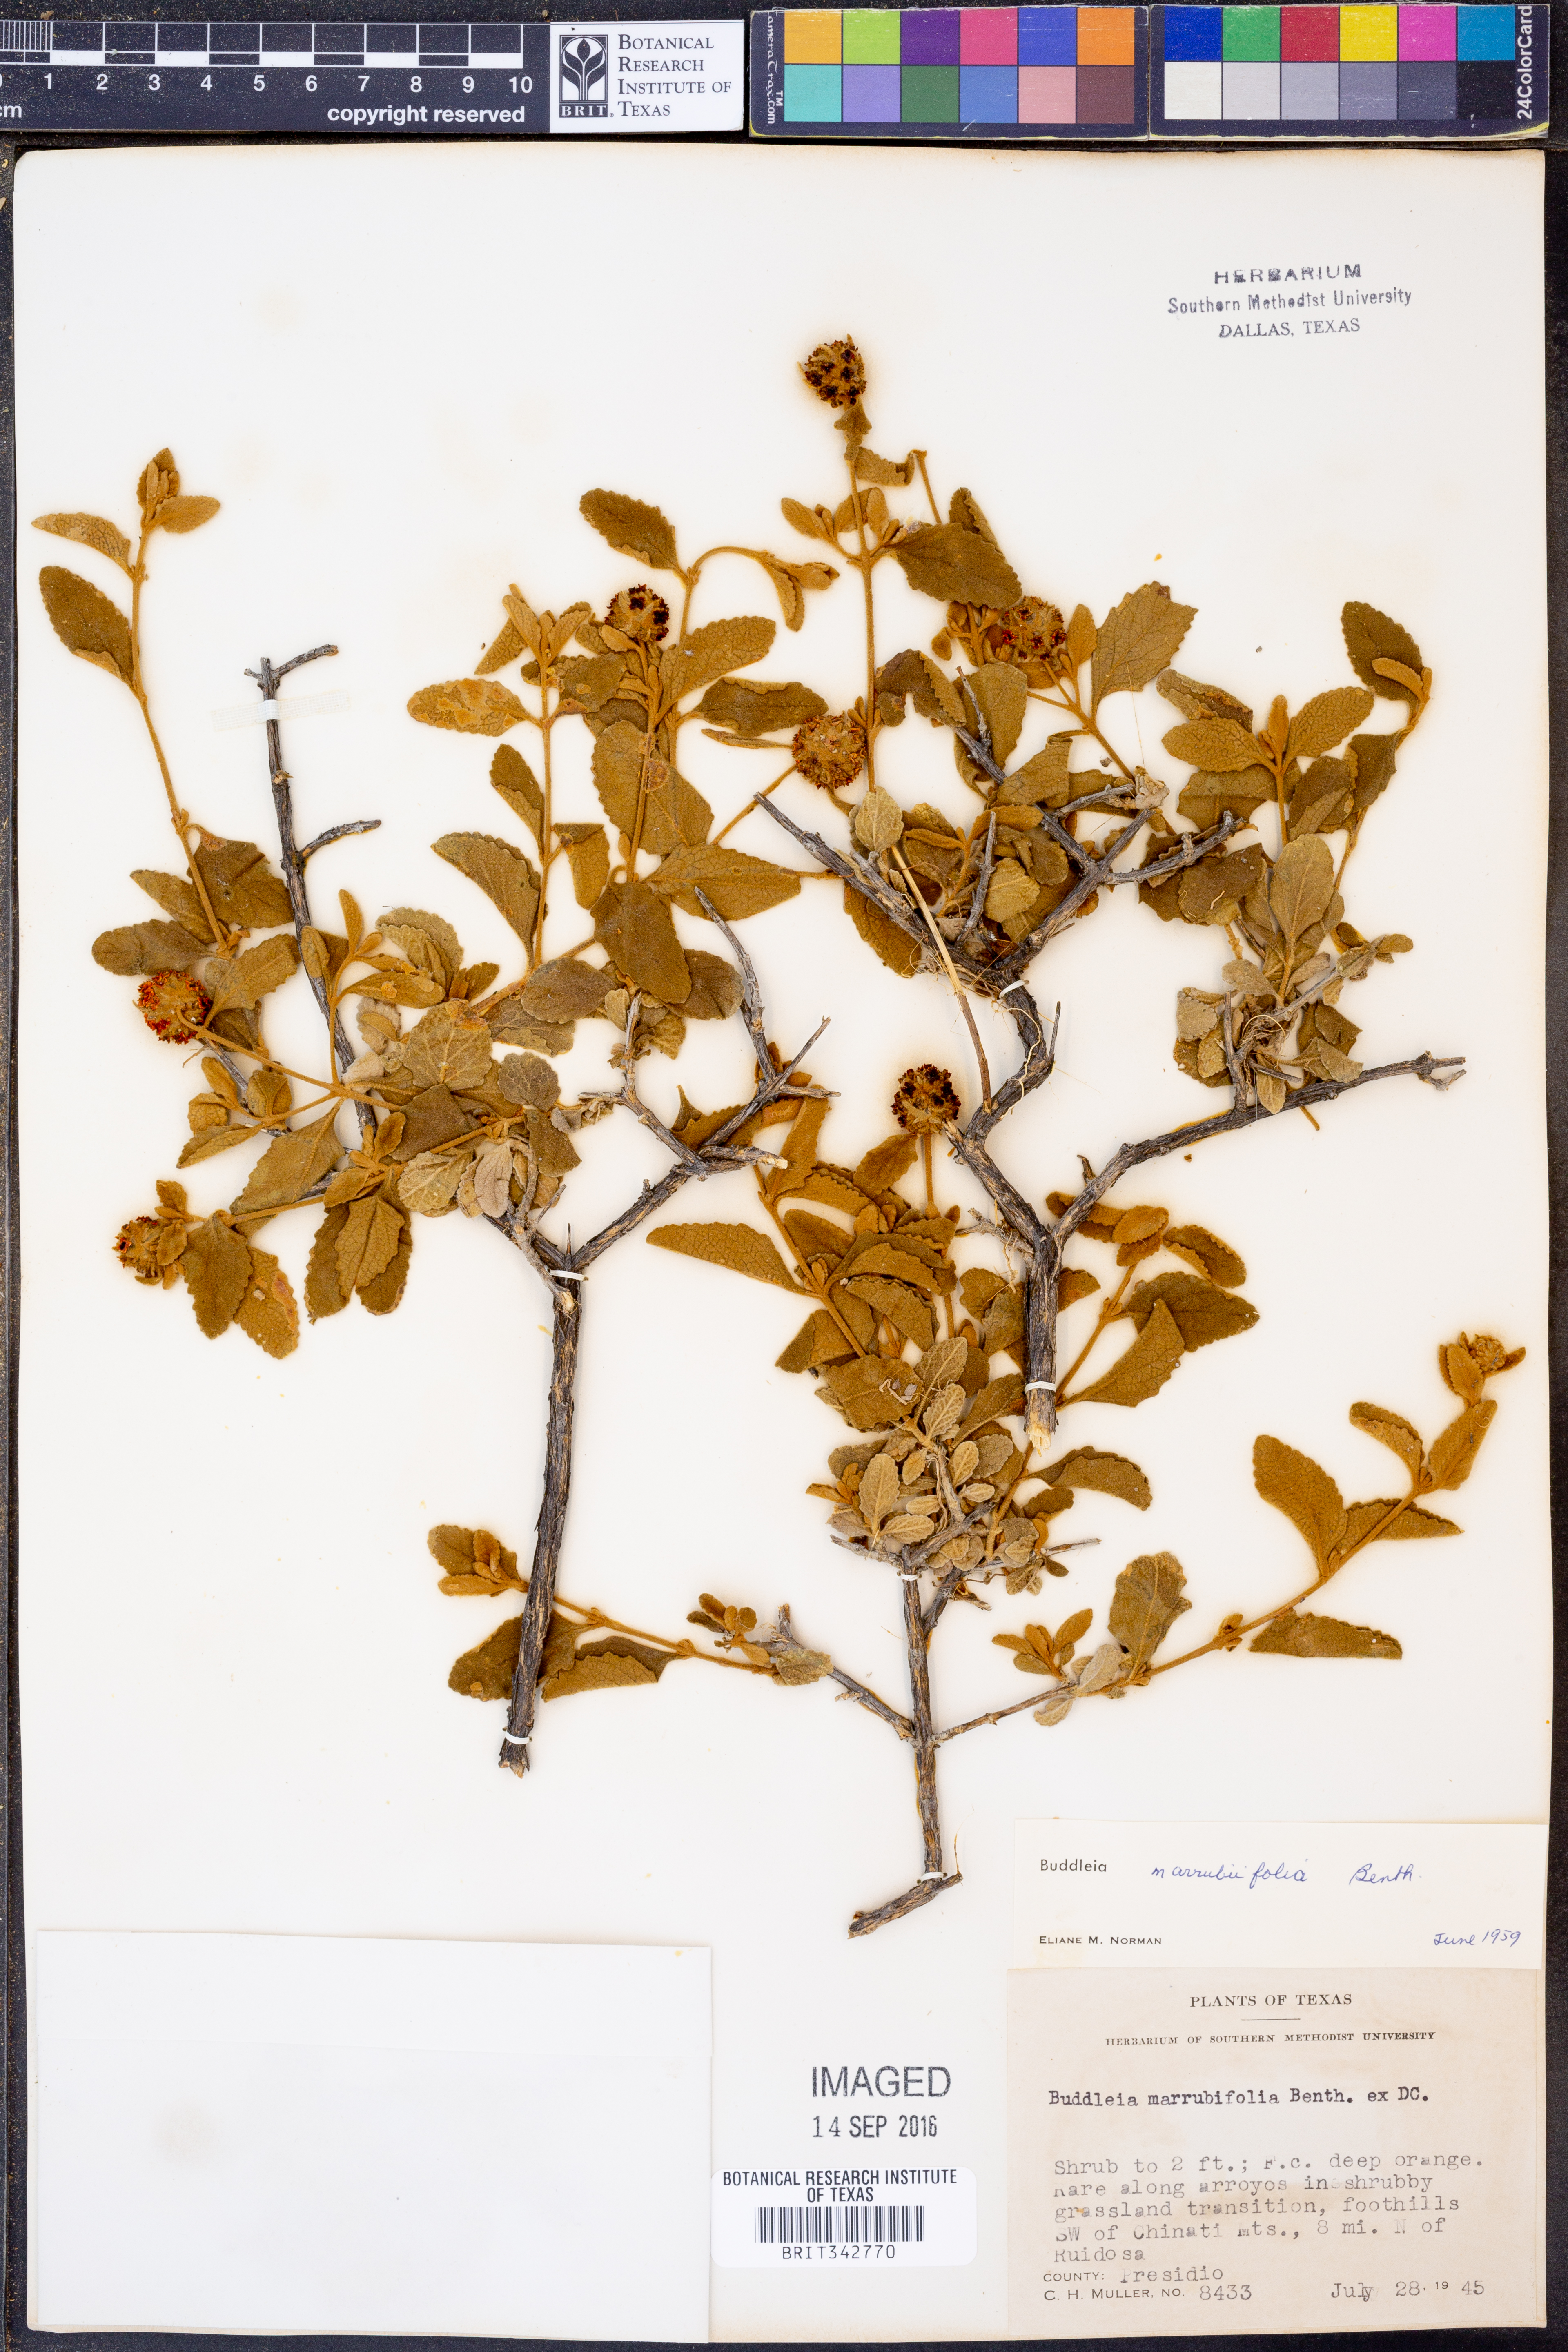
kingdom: Plantae
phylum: Tracheophyta
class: Magnoliopsida
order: Lamiales
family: Scrophulariaceae
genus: Buddleja
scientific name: Buddleja marrubiifolia
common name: Woolly butterfly-bush
